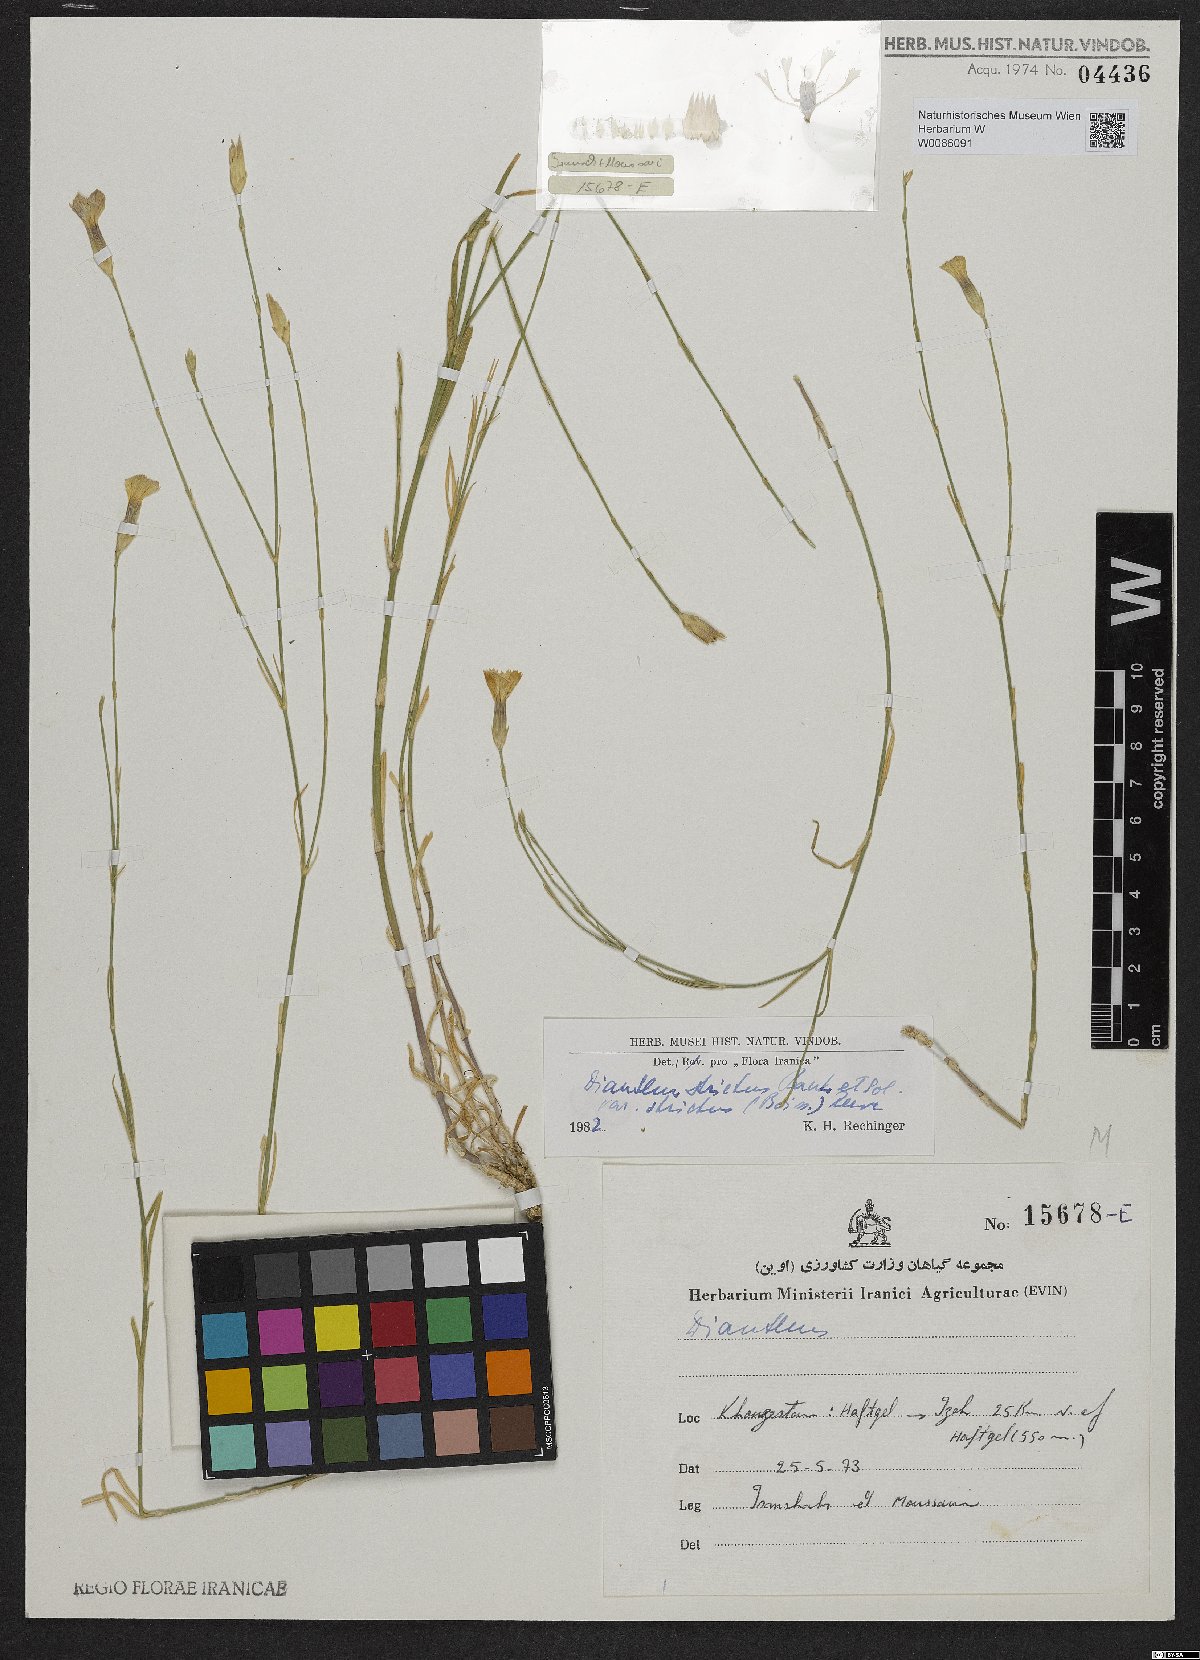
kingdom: Plantae
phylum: Tracheophyta
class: Magnoliopsida
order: Caryophyllales
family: Caryophyllaceae
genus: Dianthus
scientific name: Dianthus strictus
